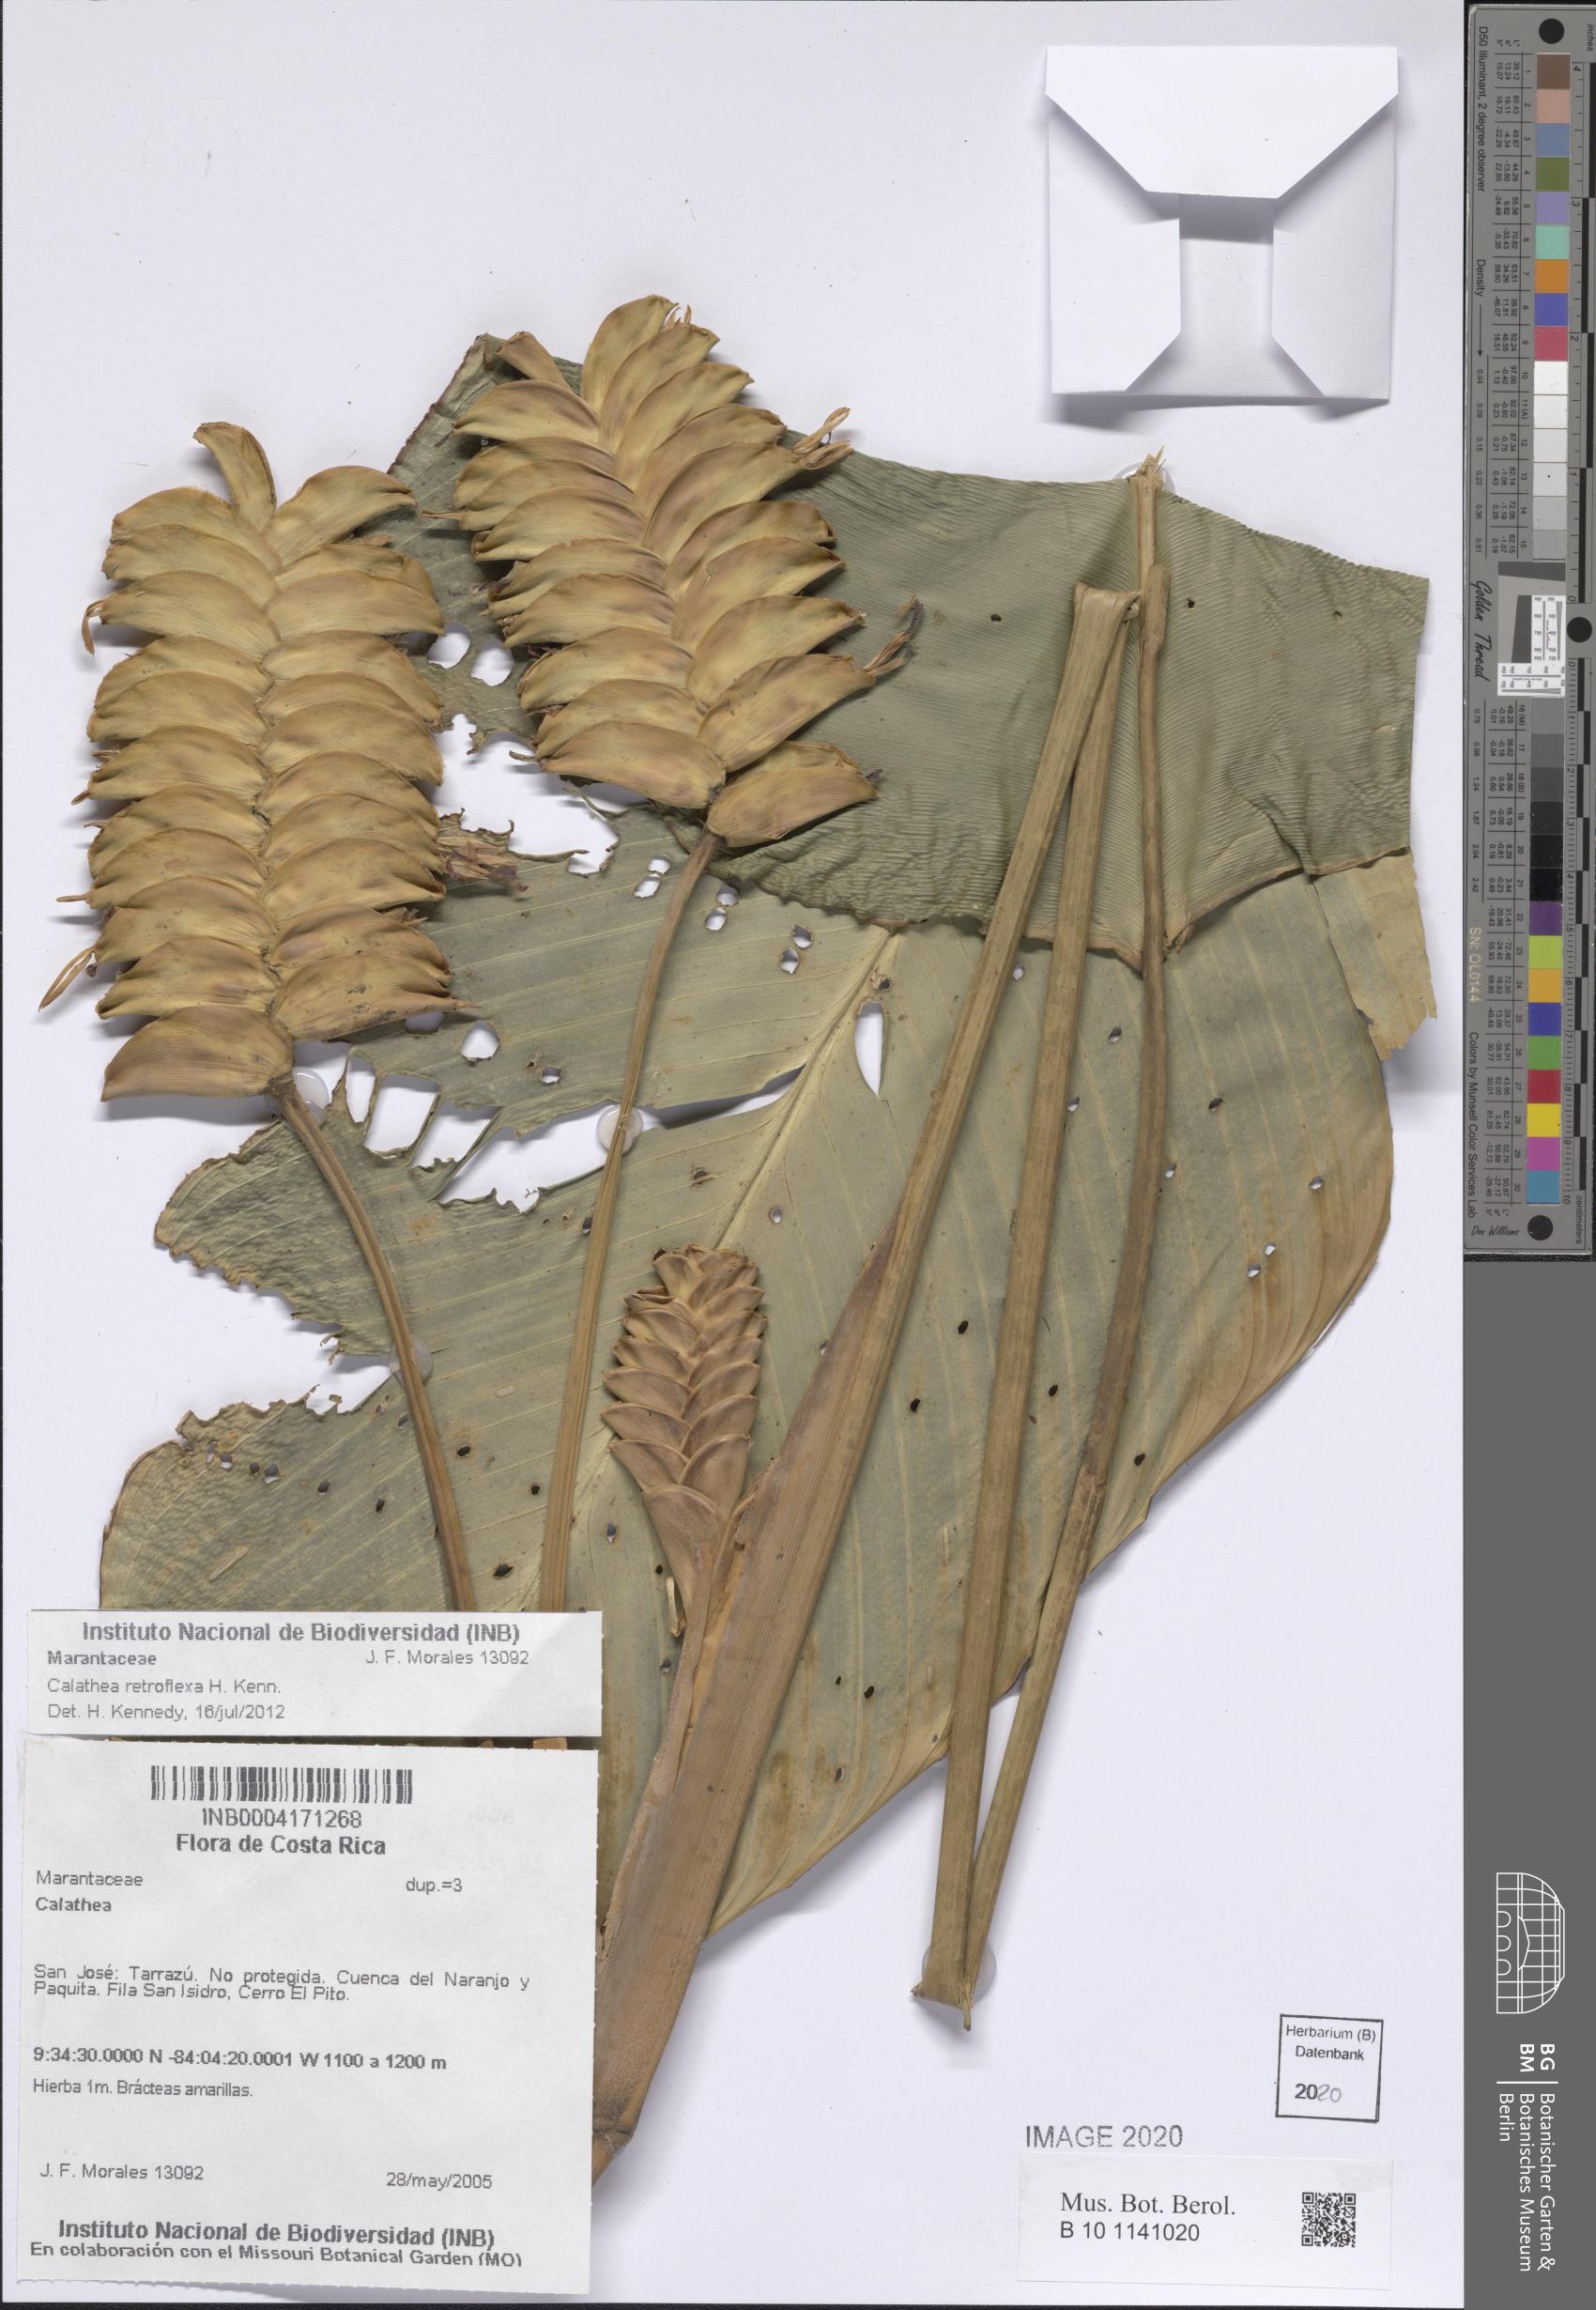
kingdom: Plantae
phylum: Tracheophyta
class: Liliopsida
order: Zingiberales
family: Marantaceae
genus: Calathea
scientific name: Calathea retroflexa
